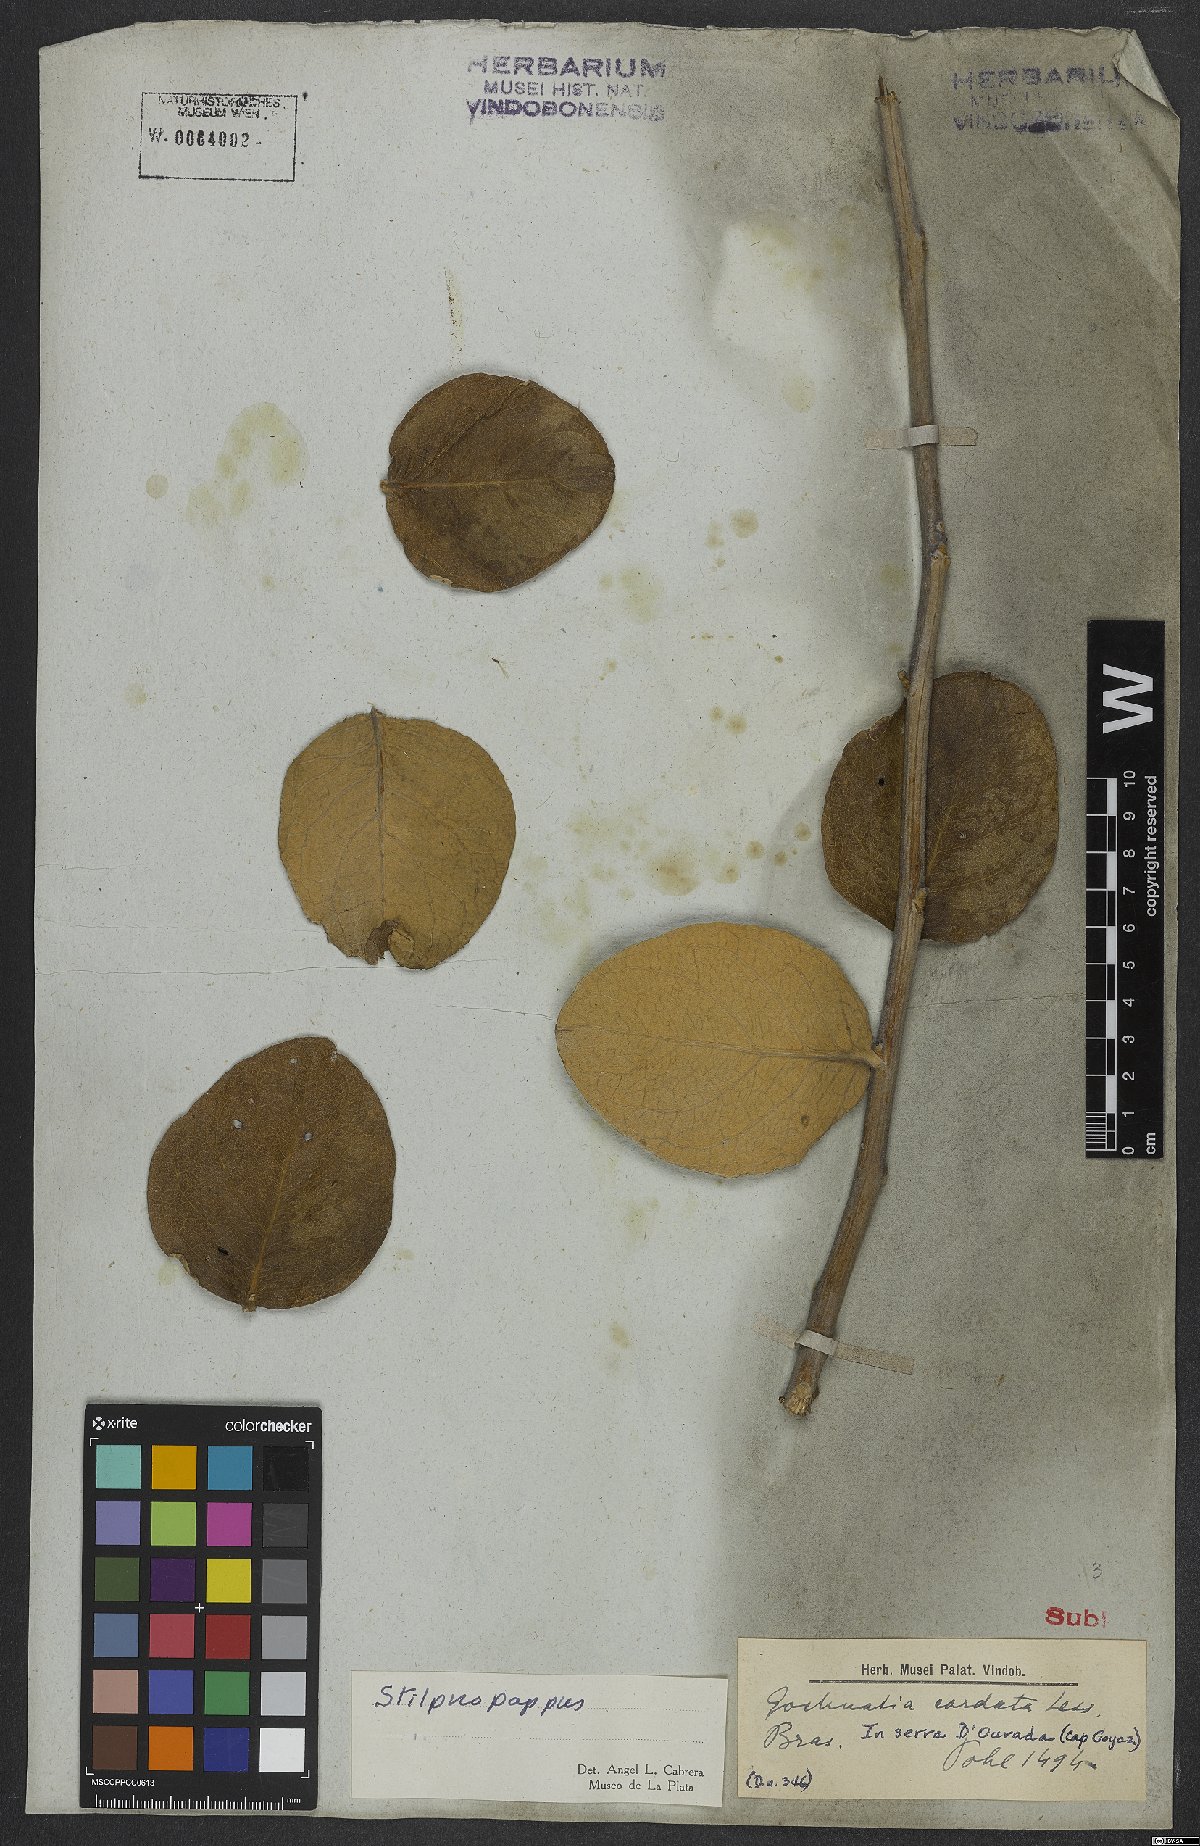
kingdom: Plantae
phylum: Tracheophyta
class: Magnoliopsida
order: Asterales
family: Asteraceae
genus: Stilpnopappus
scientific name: Stilpnopappus speciosus
